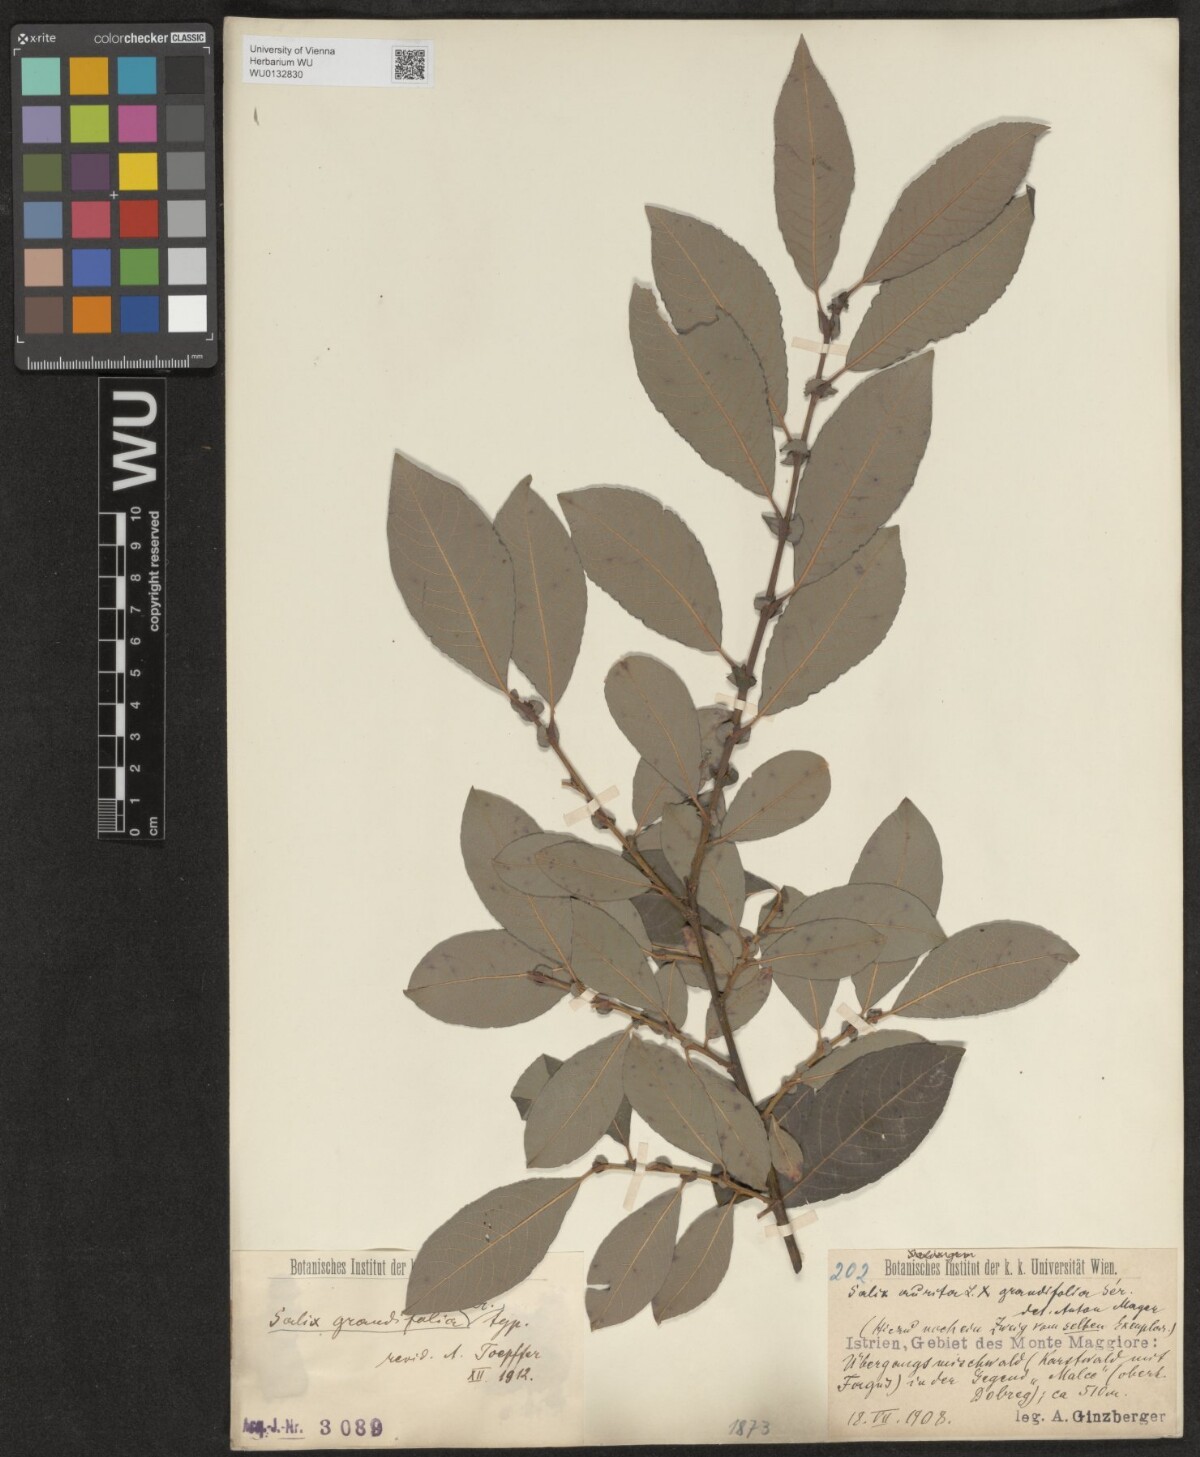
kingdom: Plantae
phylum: Tracheophyta
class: Magnoliopsida
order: Malpighiales
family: Salicaceae
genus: Salix
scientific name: Salix appendiculata
